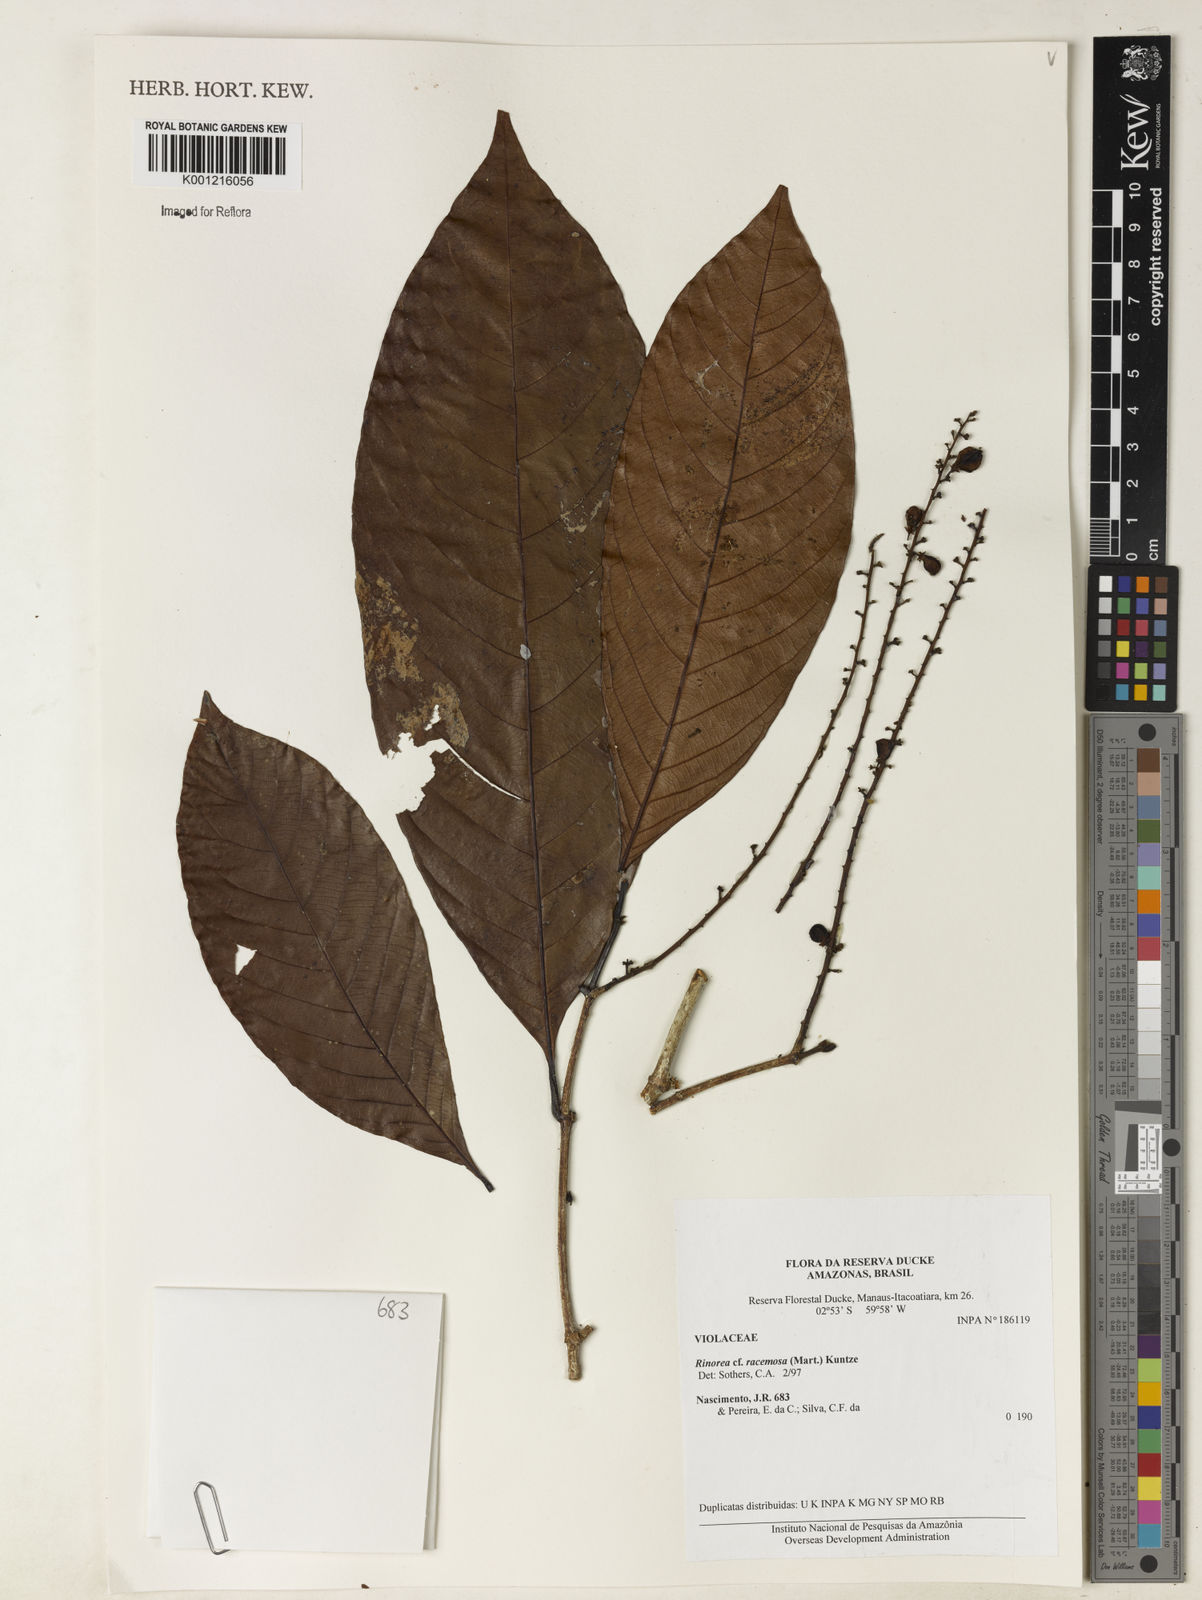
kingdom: Plantae
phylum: Tracheophyta
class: Magnoliopsida
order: Malpighiales
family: Violaceae
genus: Rinorea
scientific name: Rinorea racemosa
